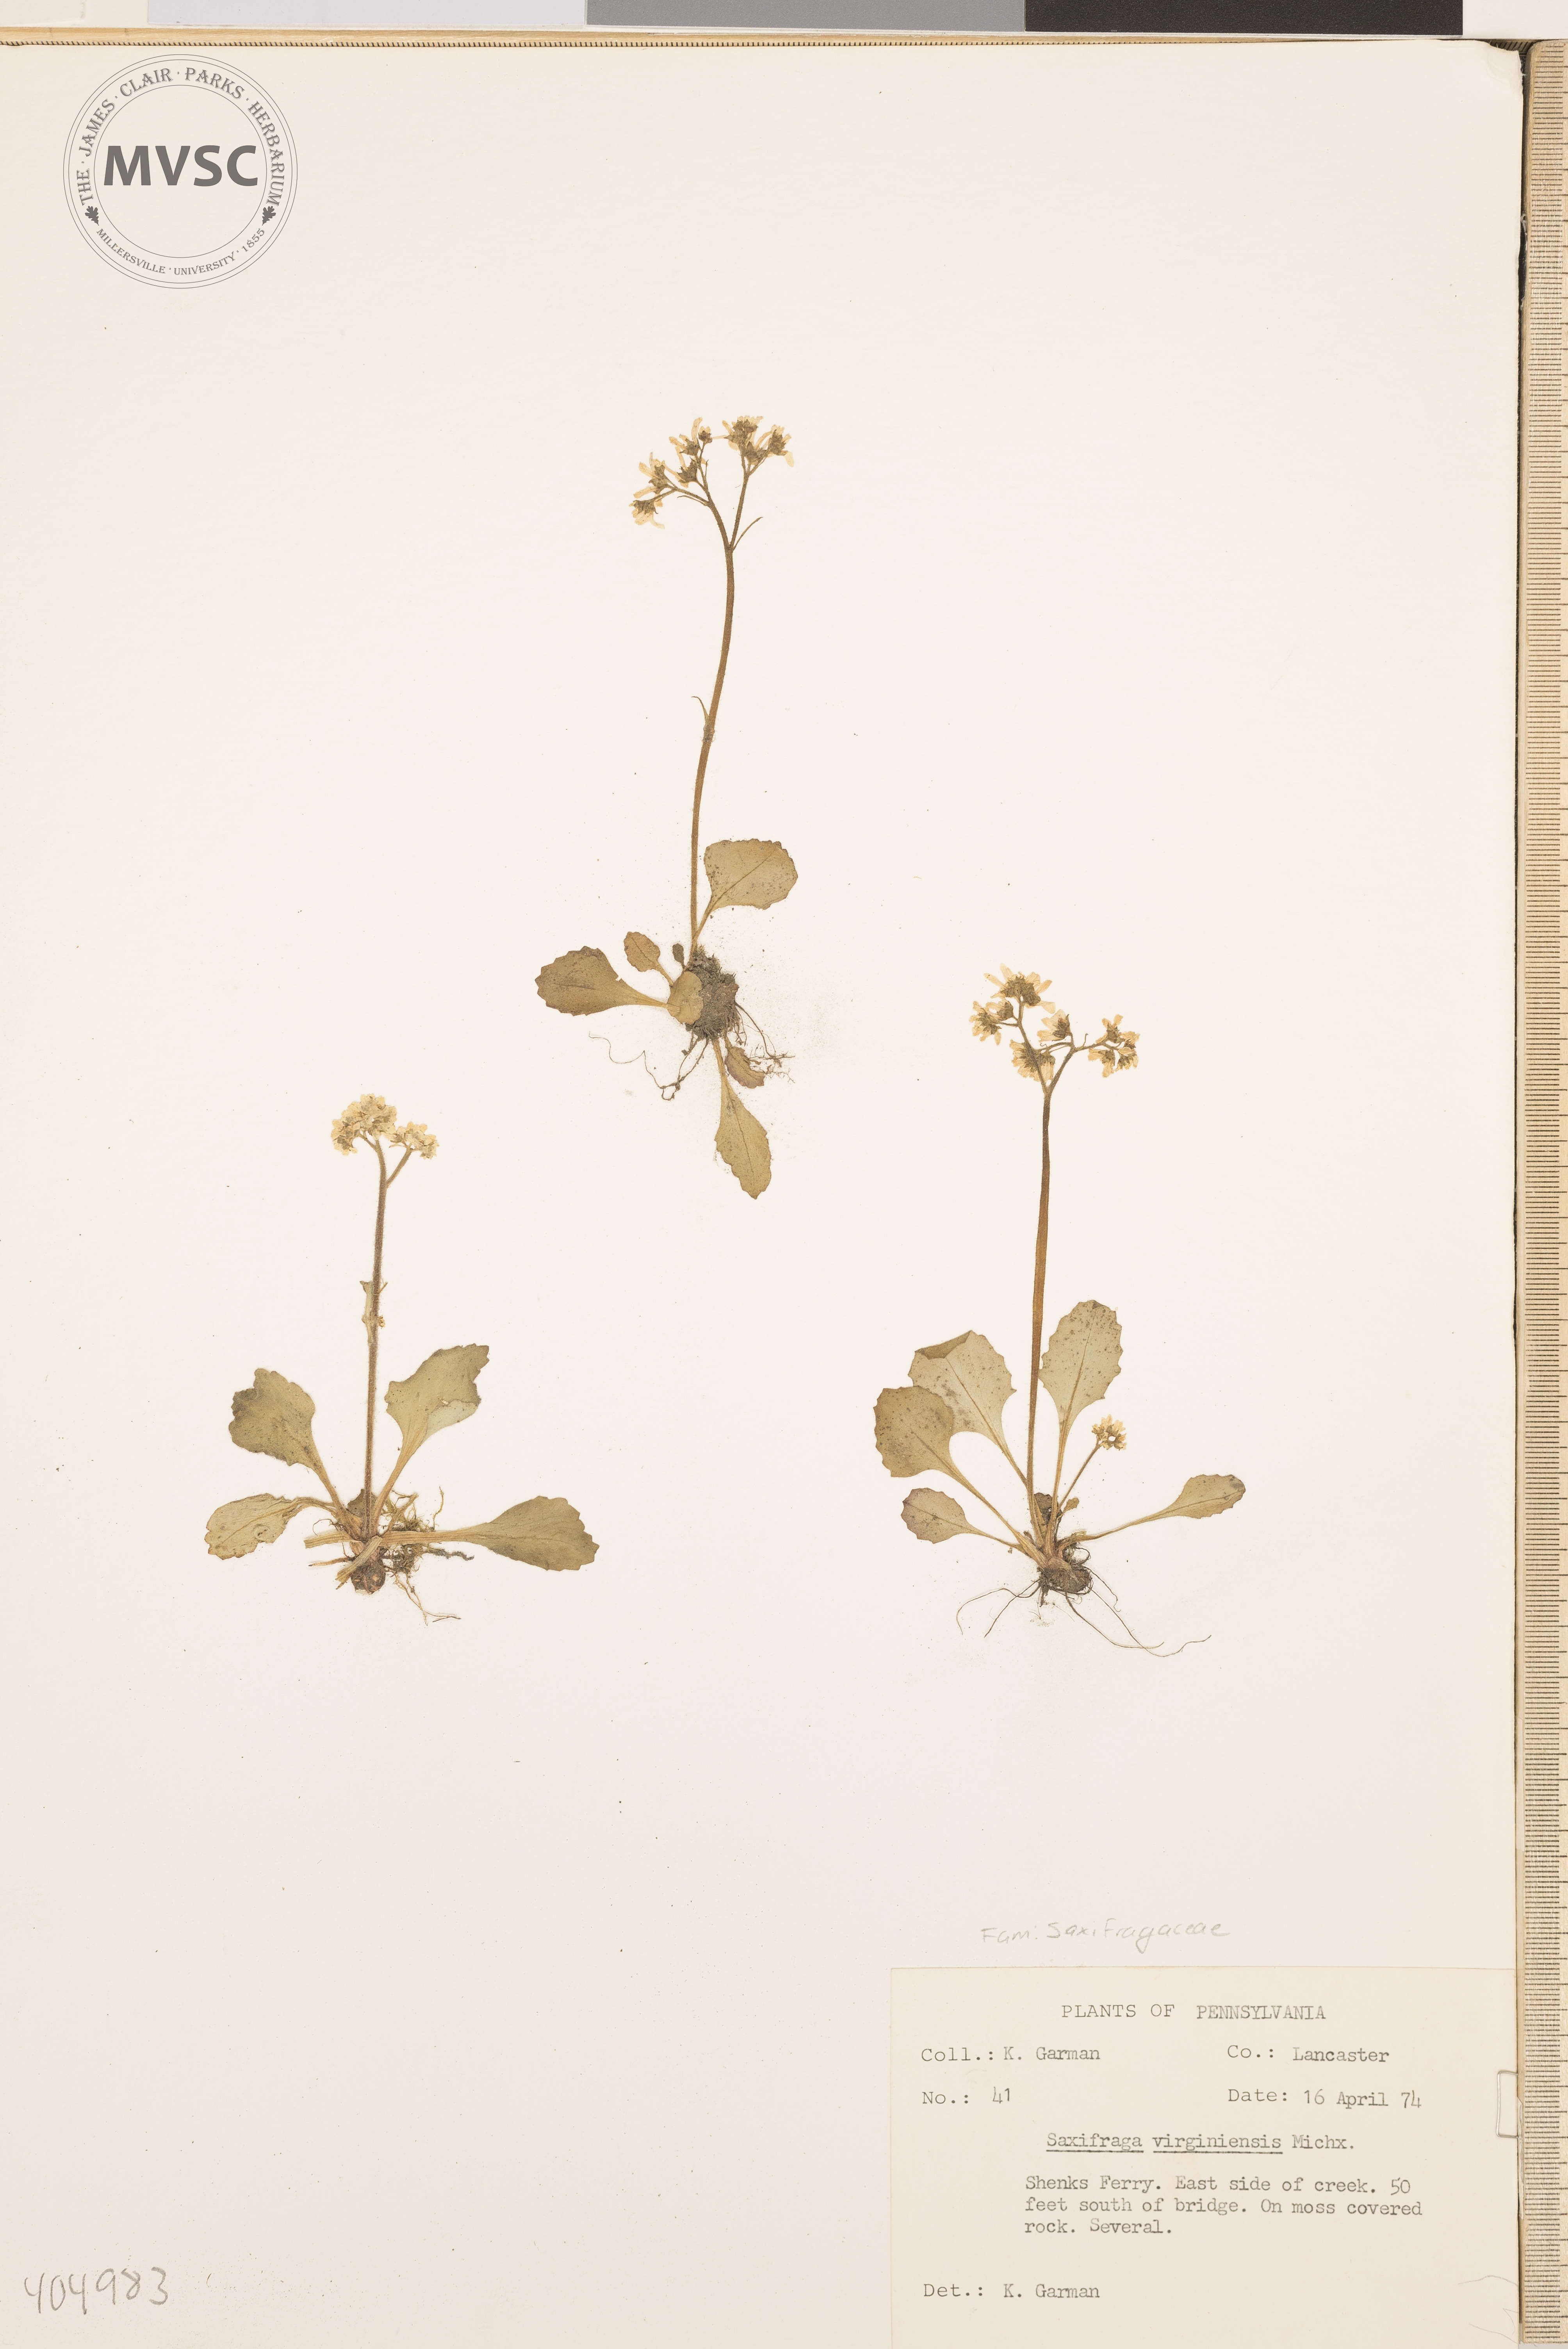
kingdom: Plantae
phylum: Tracheophyta
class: Magnoliopsida
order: Saxifragales
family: Saxifragaceae
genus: Micranthes
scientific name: Micranthes virginiensis
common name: Early saxifrage
